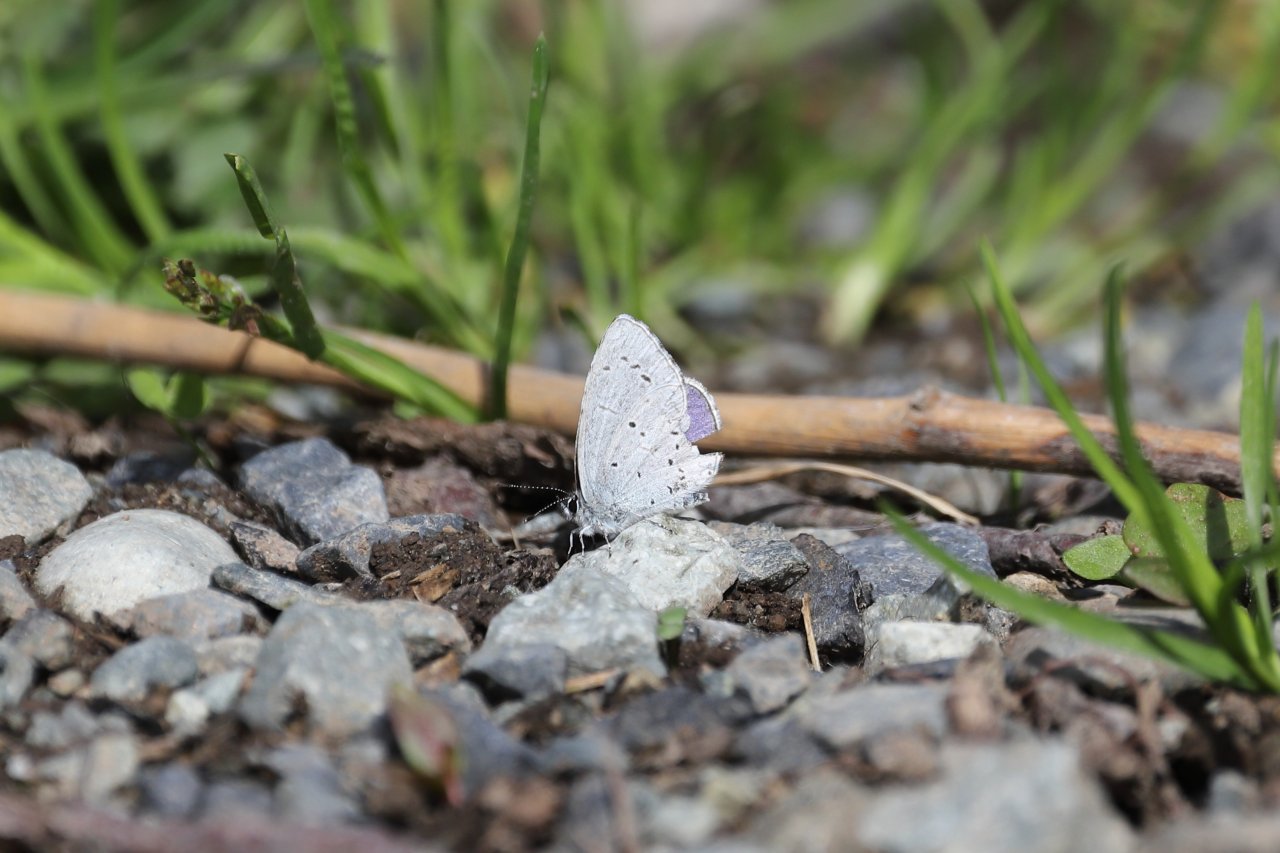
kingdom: Animalia
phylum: Arthropoda
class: Insecta
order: Lepidoptera
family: Lycaenidae
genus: Celastrina
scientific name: Celastrina ladon
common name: Echo Azure
